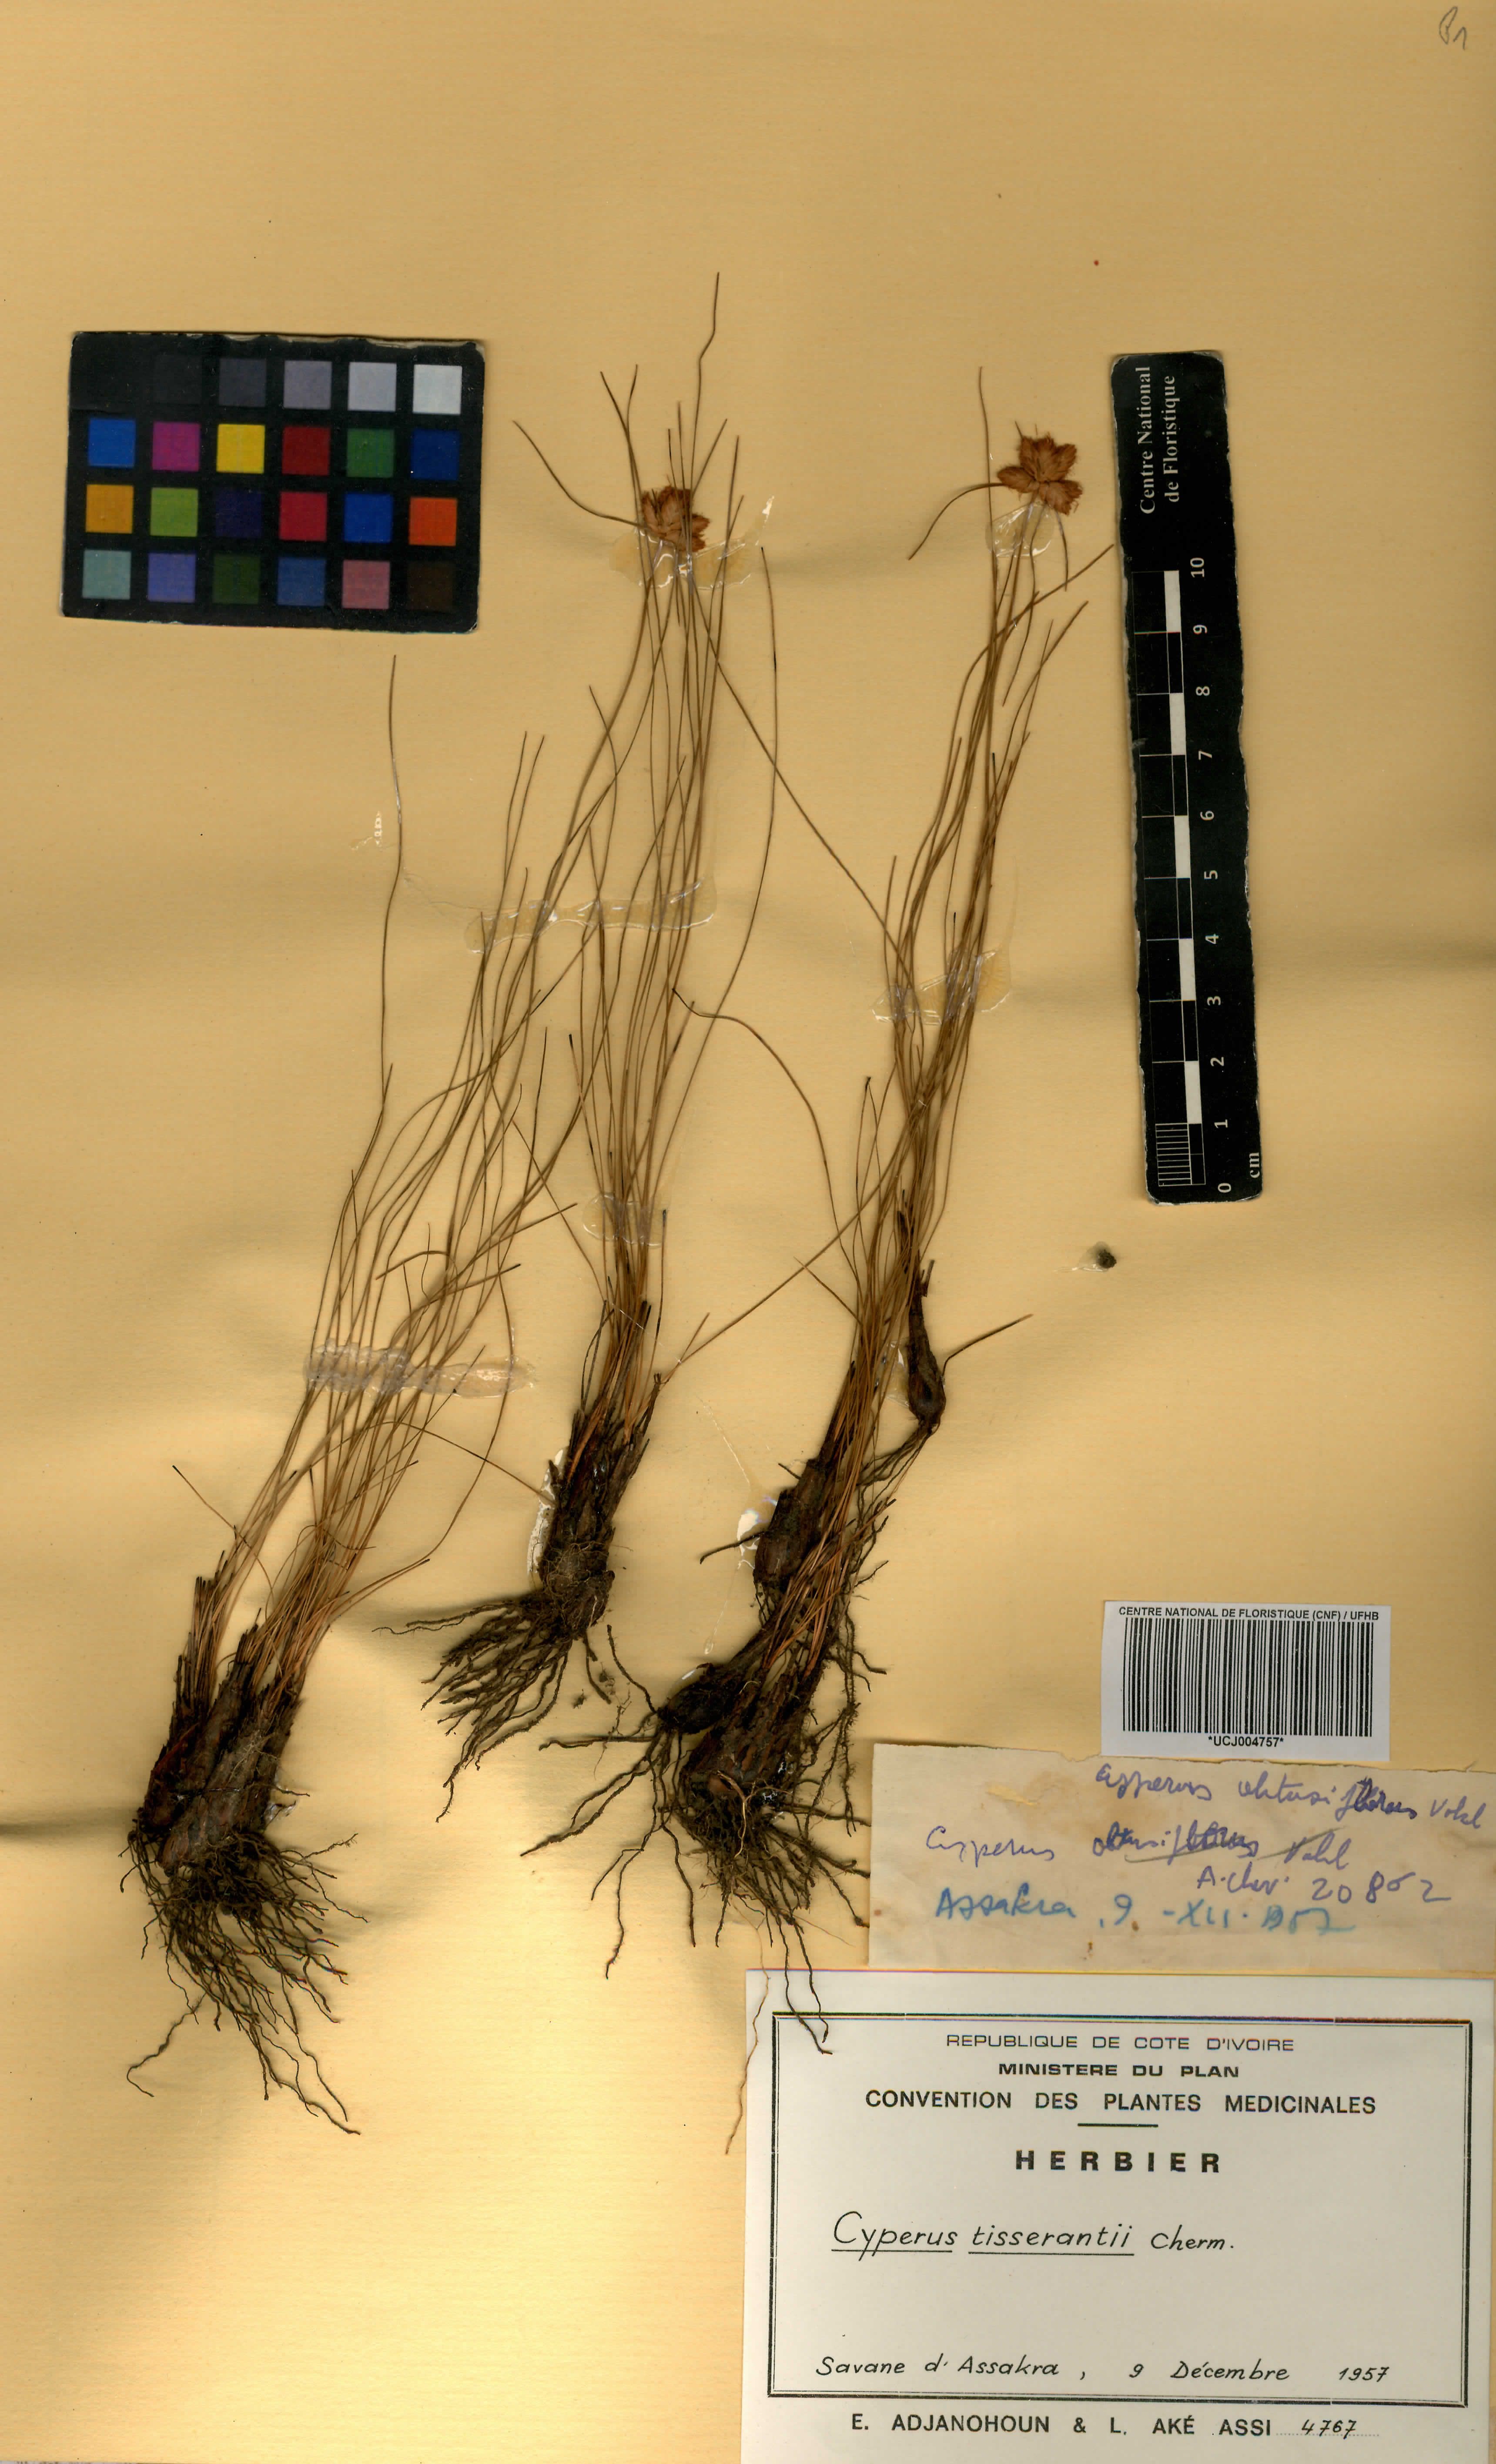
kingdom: Plantae
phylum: Tracheophyta
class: Liliopsida
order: Poales
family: Cyperaceae
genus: Cyperus
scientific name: Cyperus niveus
